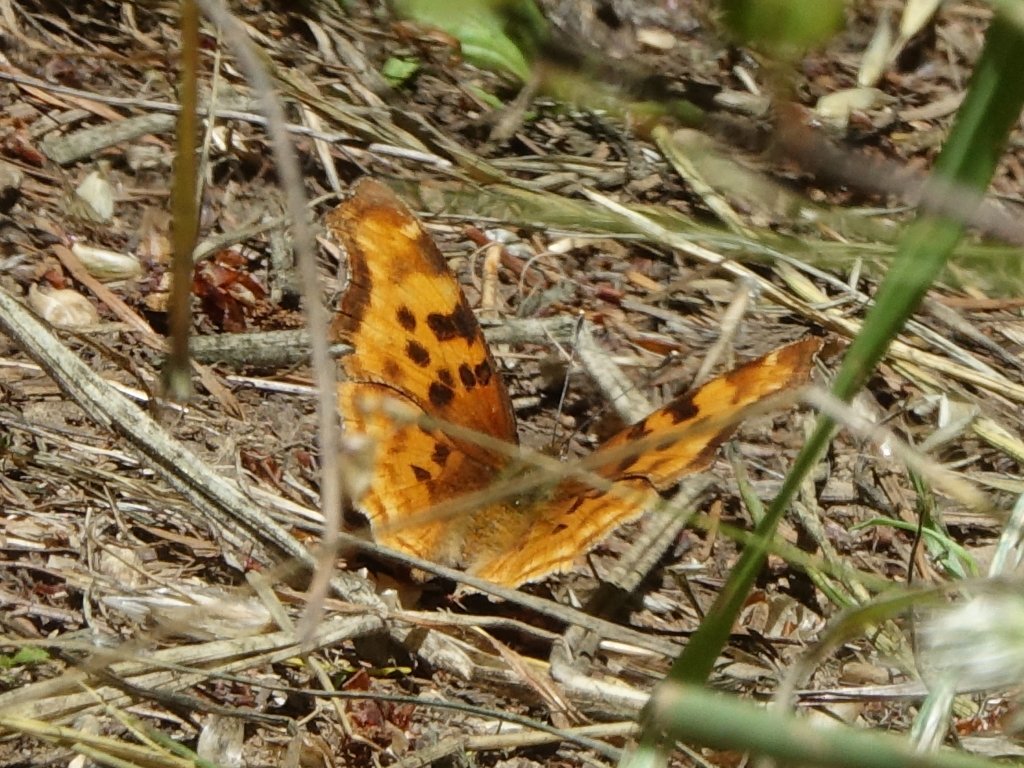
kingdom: Animalia
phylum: Arthropoda
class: Insecta
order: Lepidoptera
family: Nymphalidae
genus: Polygonia
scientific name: Polygonia satyrus
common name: Satyr Comma
